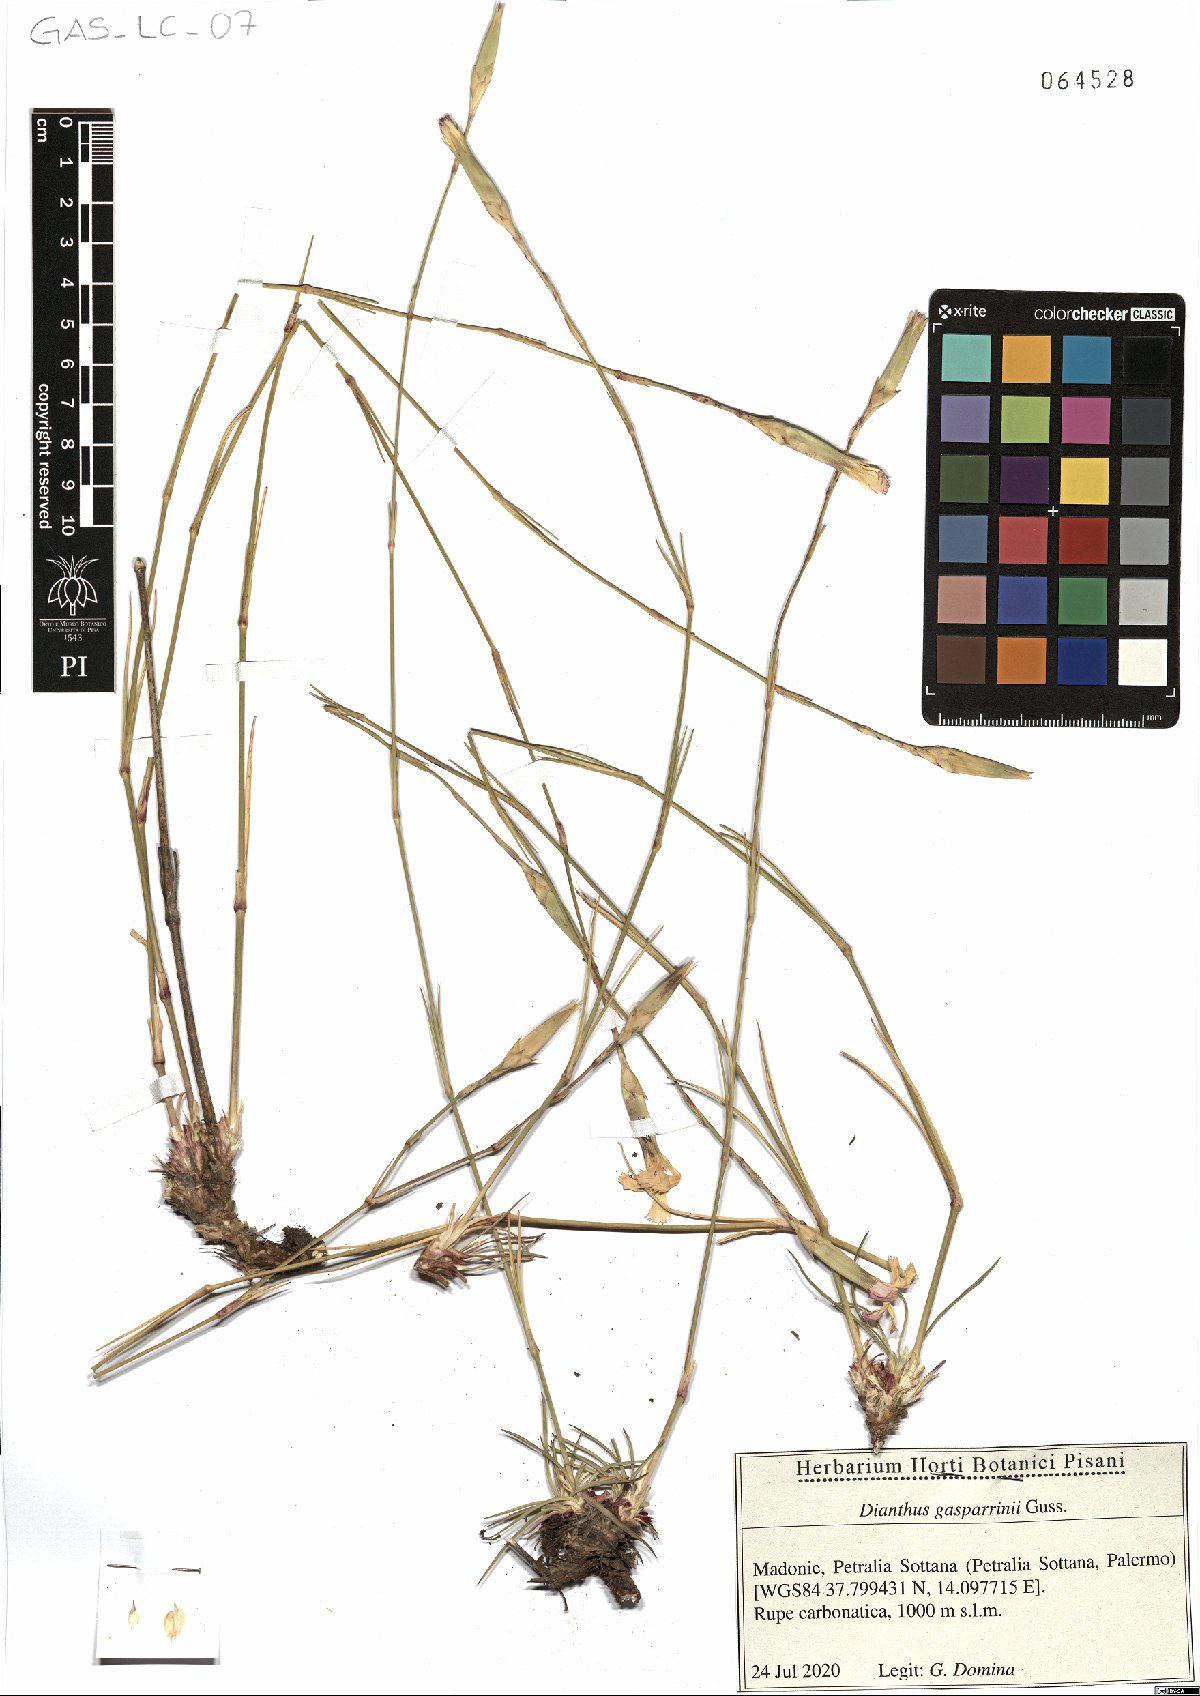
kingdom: Plantae
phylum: Tracheophyta
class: Magnoliopsida
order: Caryophyllales
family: Caryophyllaceae
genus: Dianthus
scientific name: Dianthus gasparrinii
